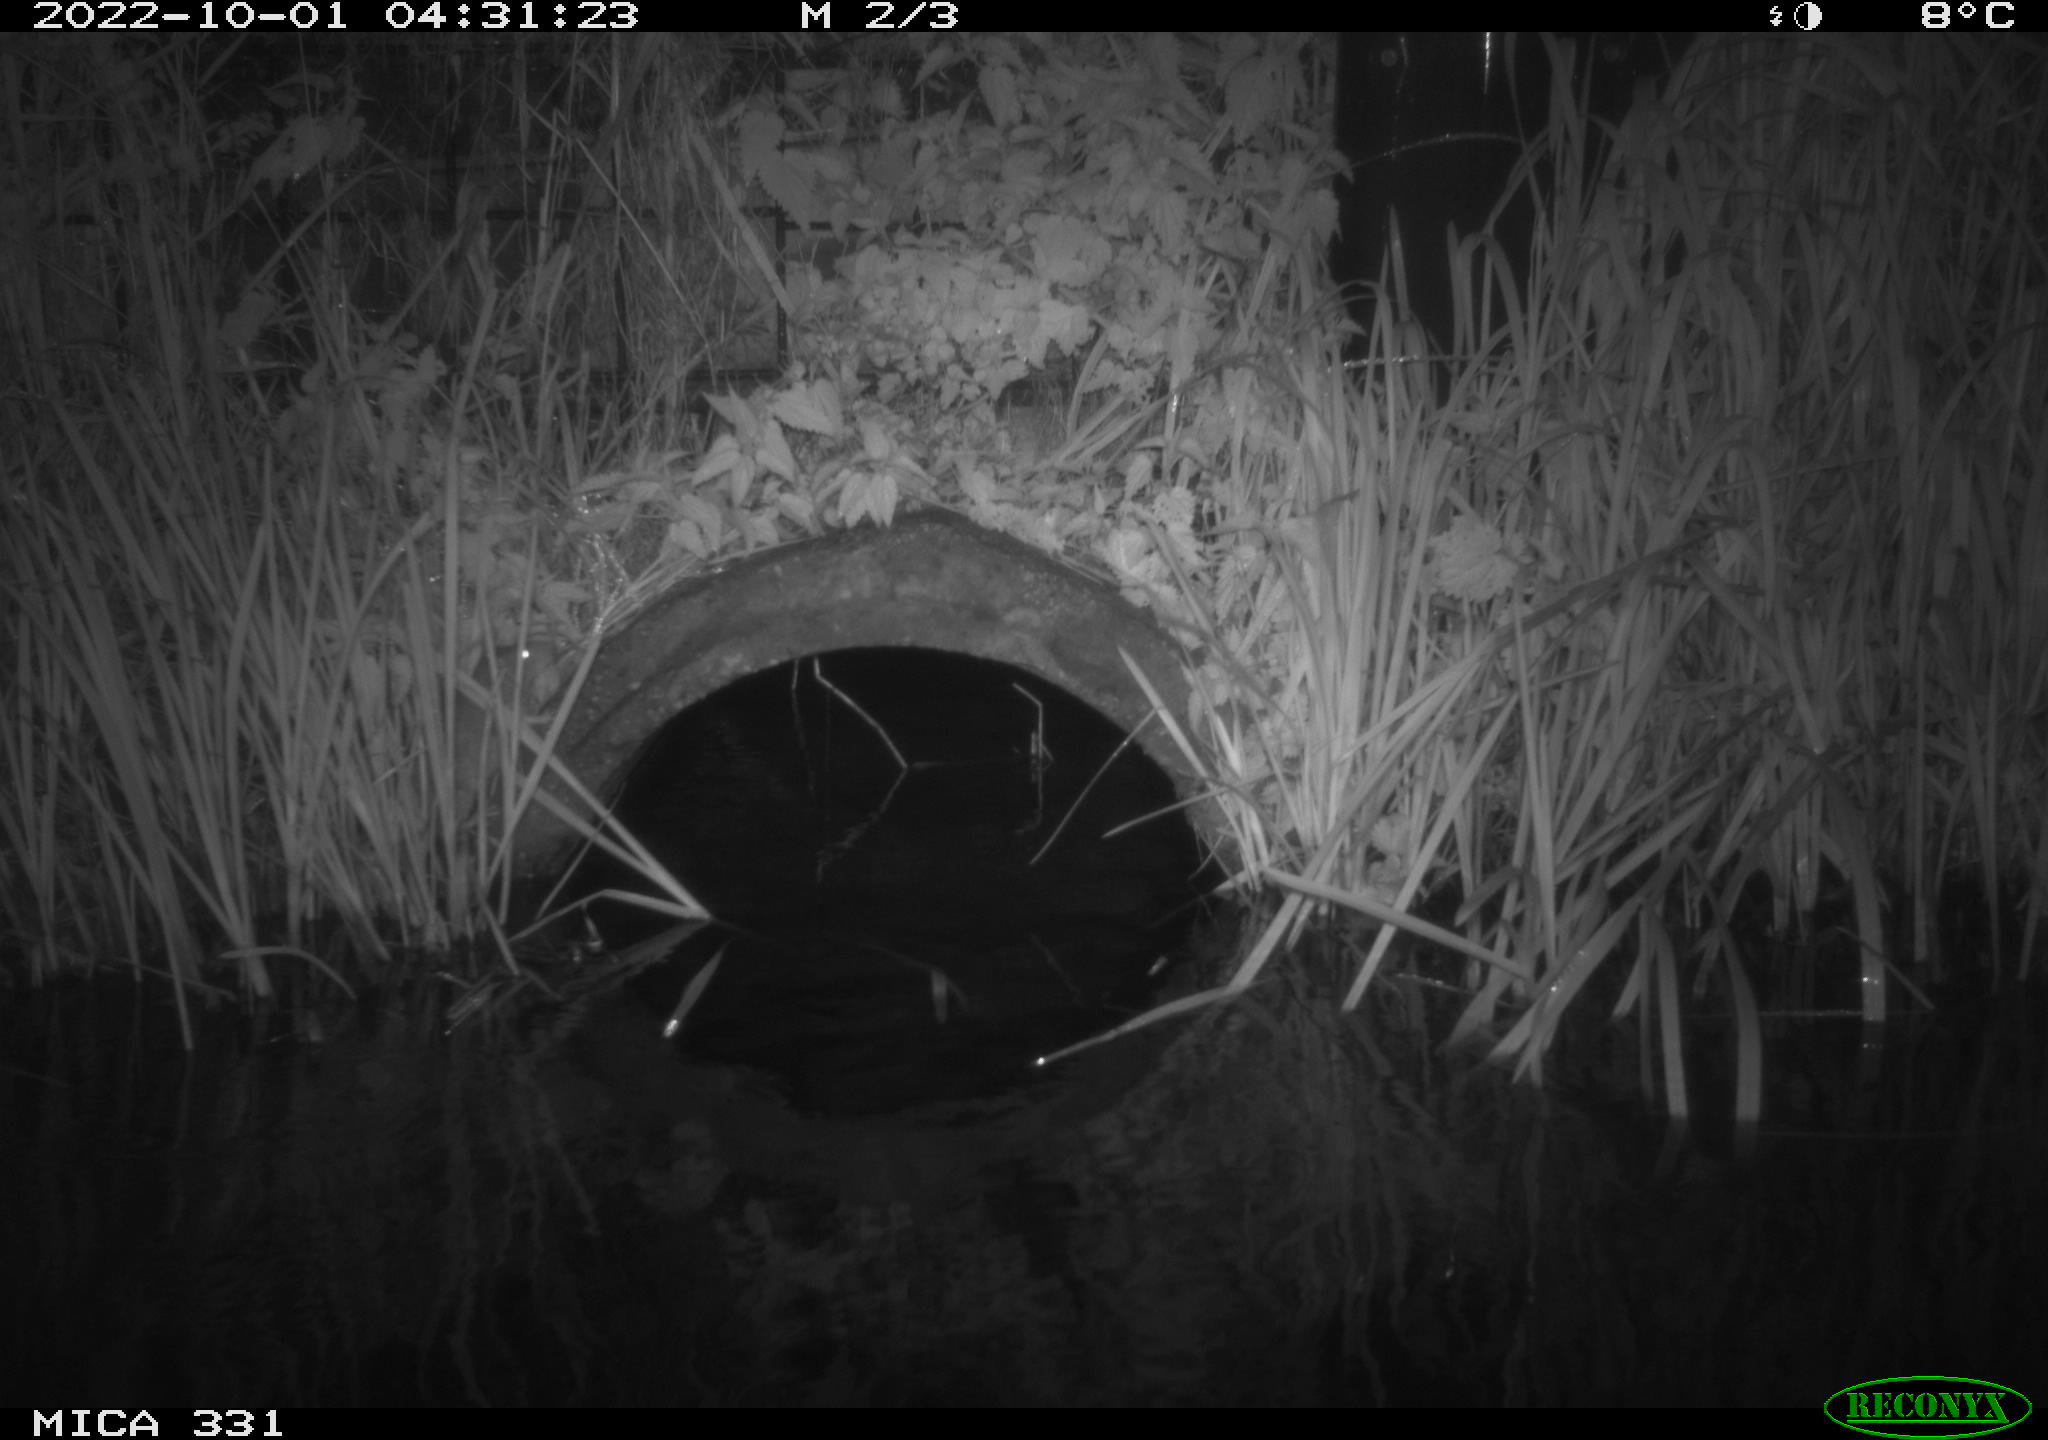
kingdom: Animalia
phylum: Chordata
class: Mammalia
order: Rodentia
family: Muridae
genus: Rattus
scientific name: Rattus norvegicus
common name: Brown rat
